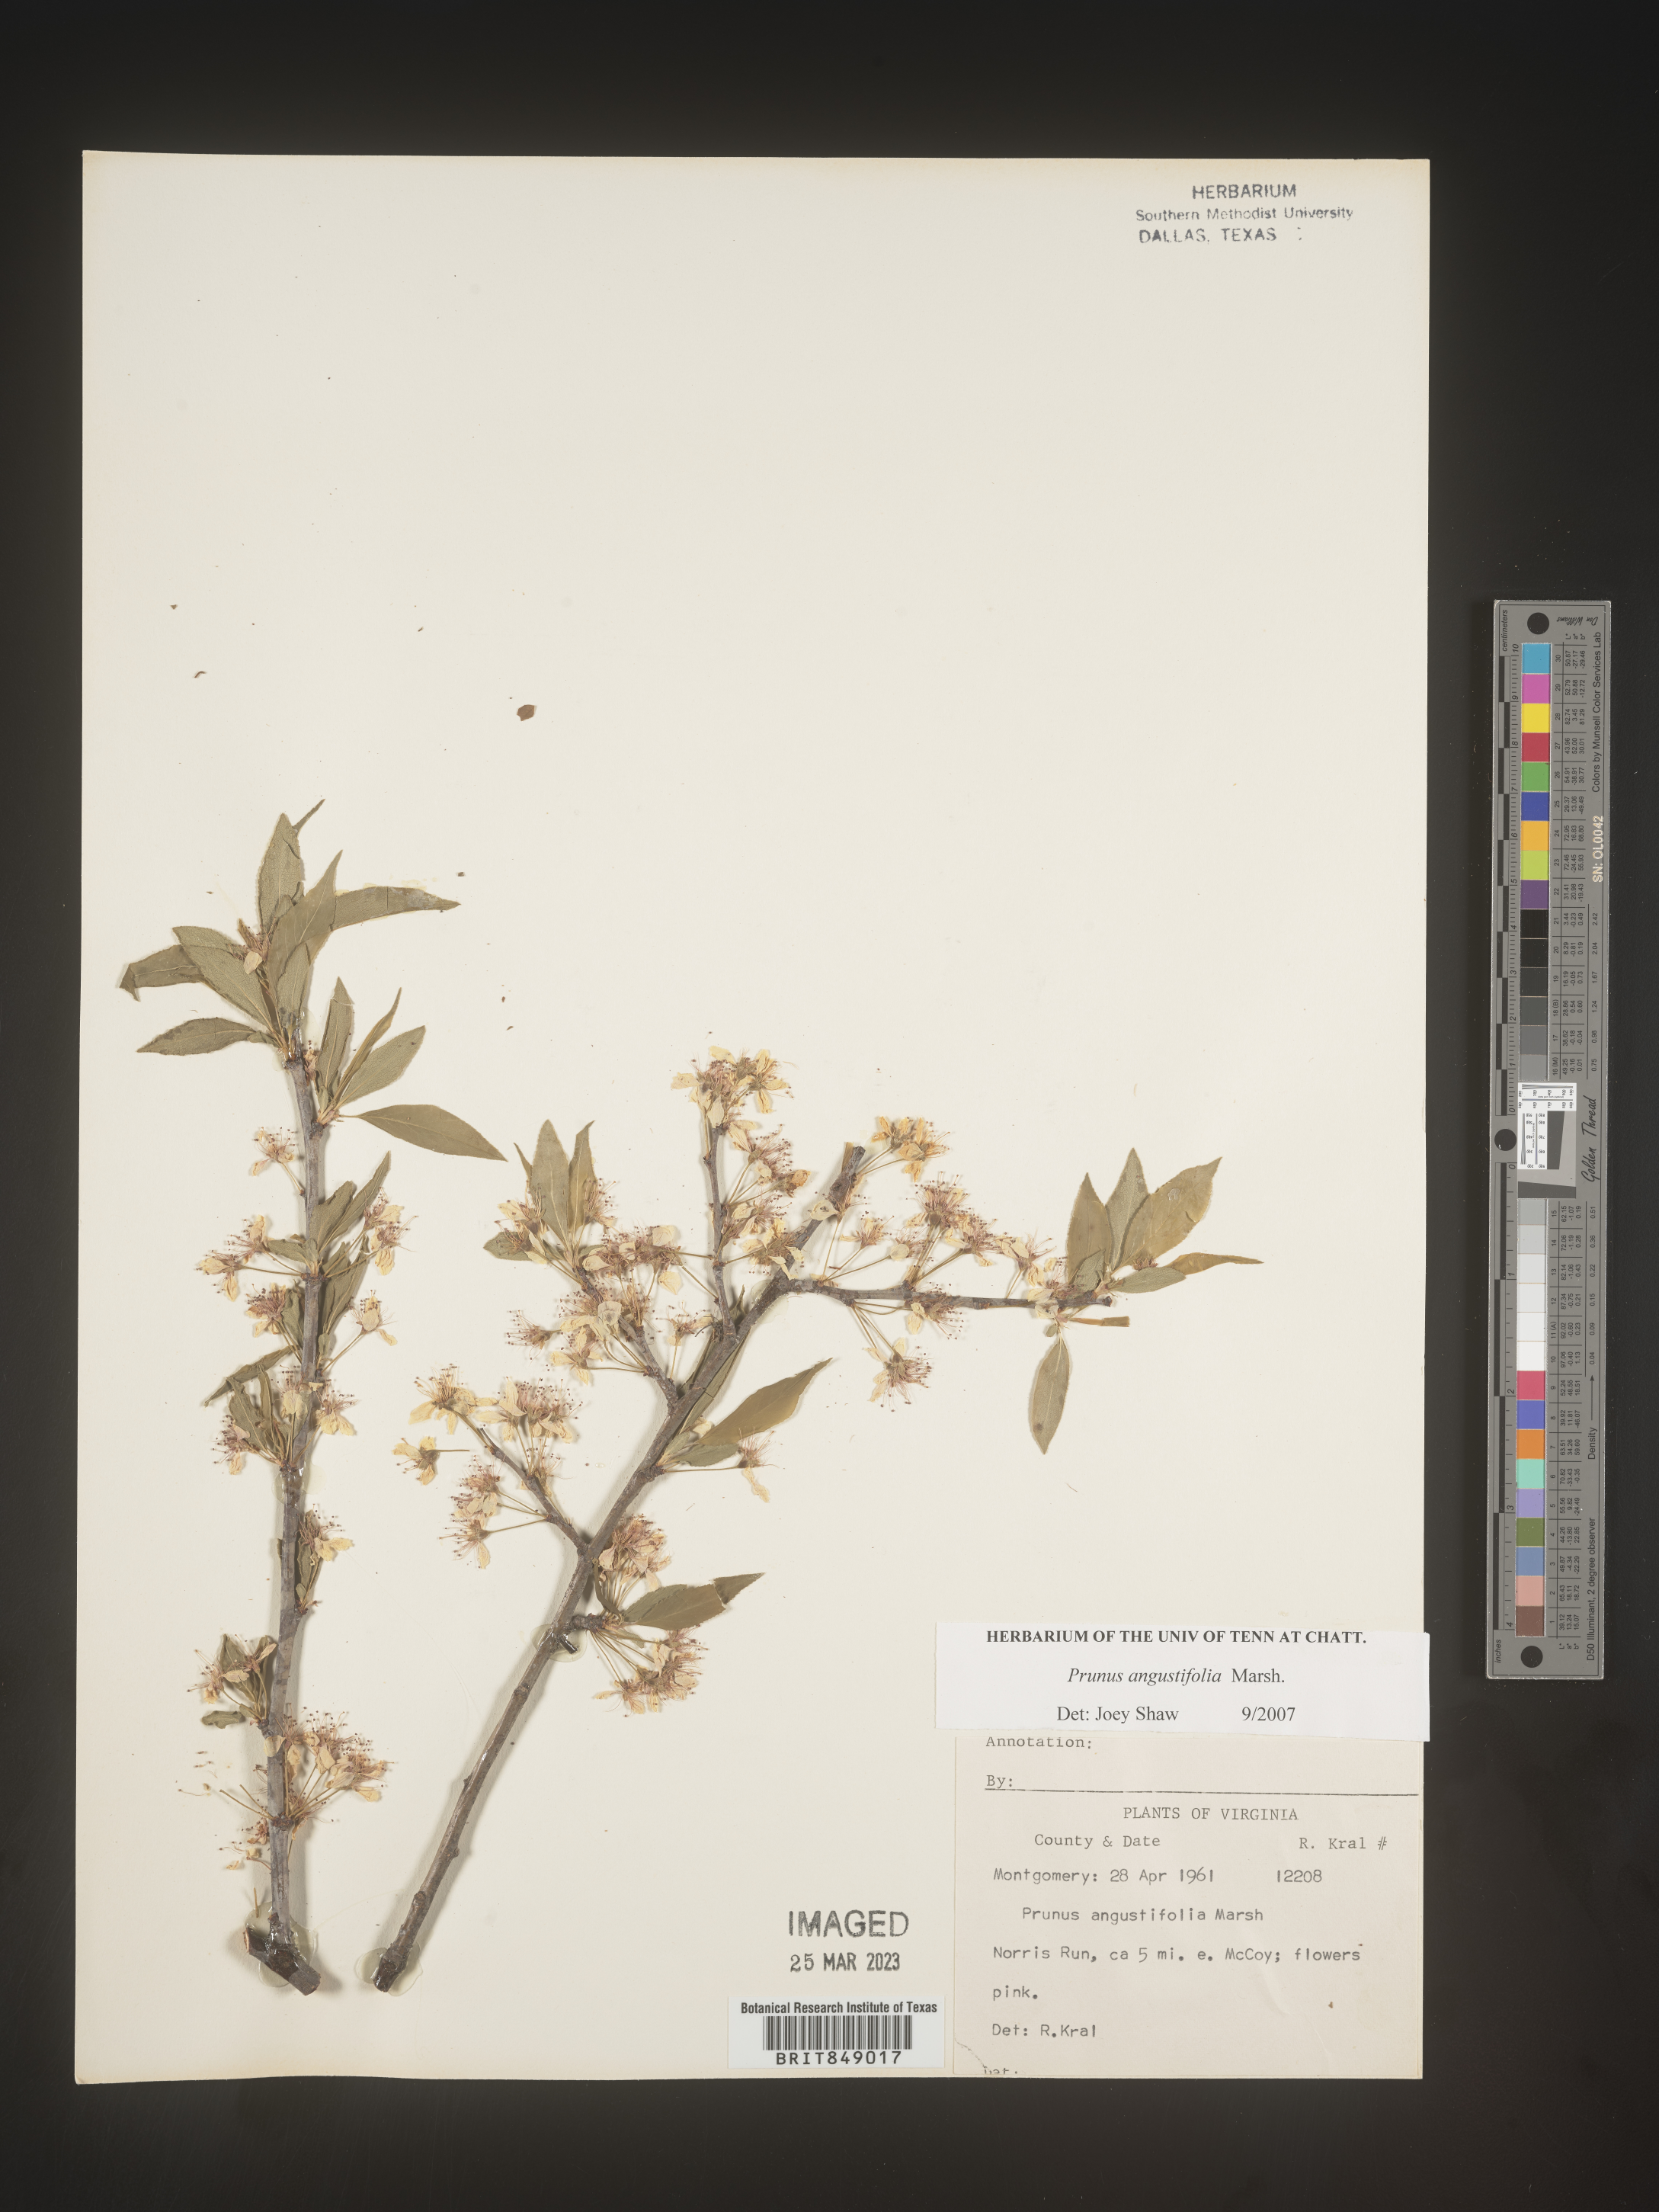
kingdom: Plantae
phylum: Tracheophyta
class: Magnoliopsida
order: Rosales
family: Rosaceae
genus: Prunus
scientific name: Prunus angustifolia
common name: Cherokee plum
